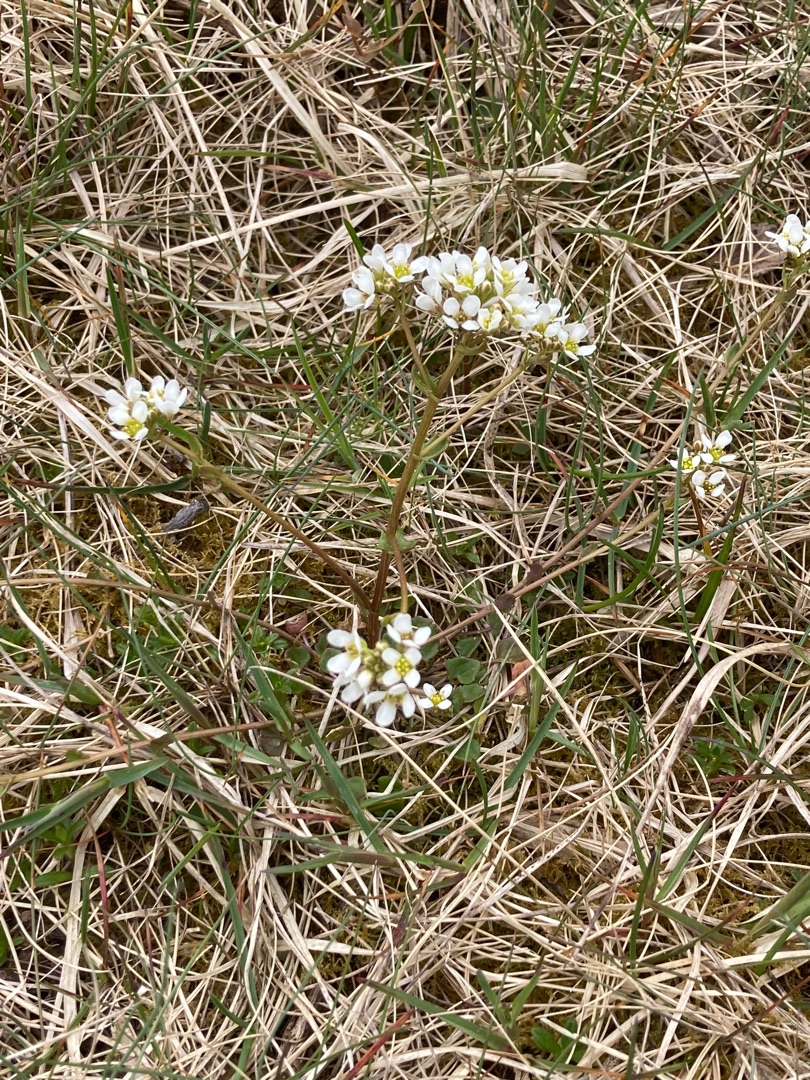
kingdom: Plantae
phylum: Tracheophyta
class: Magnoliopsida
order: Brassicales
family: Brassicaceae
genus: Cochlearia
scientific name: Cochlearia officinalis
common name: Læge-kokleare (underart)
